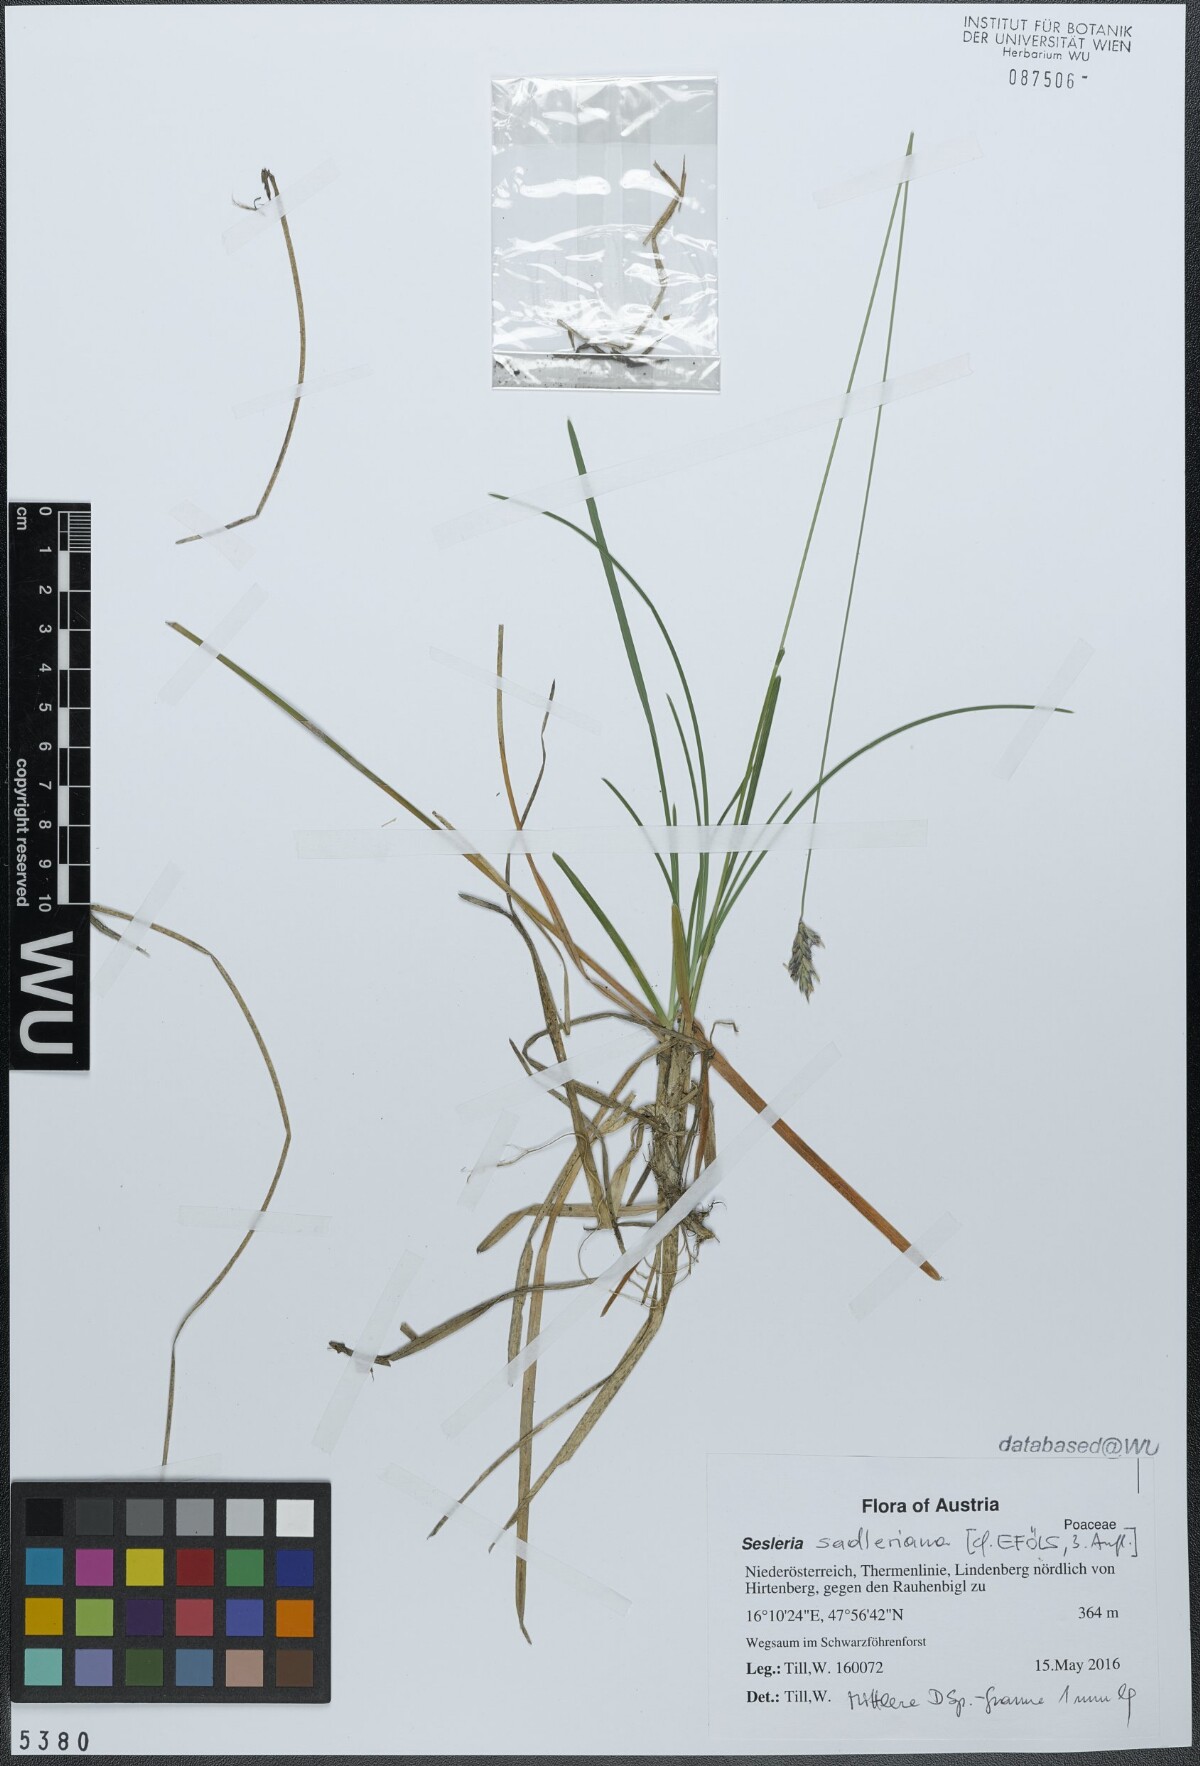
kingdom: Plantae
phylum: Tracheophyta
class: Liliopsida
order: Poales
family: Poaceae
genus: Sesleria
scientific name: Sesleria sadleriana
